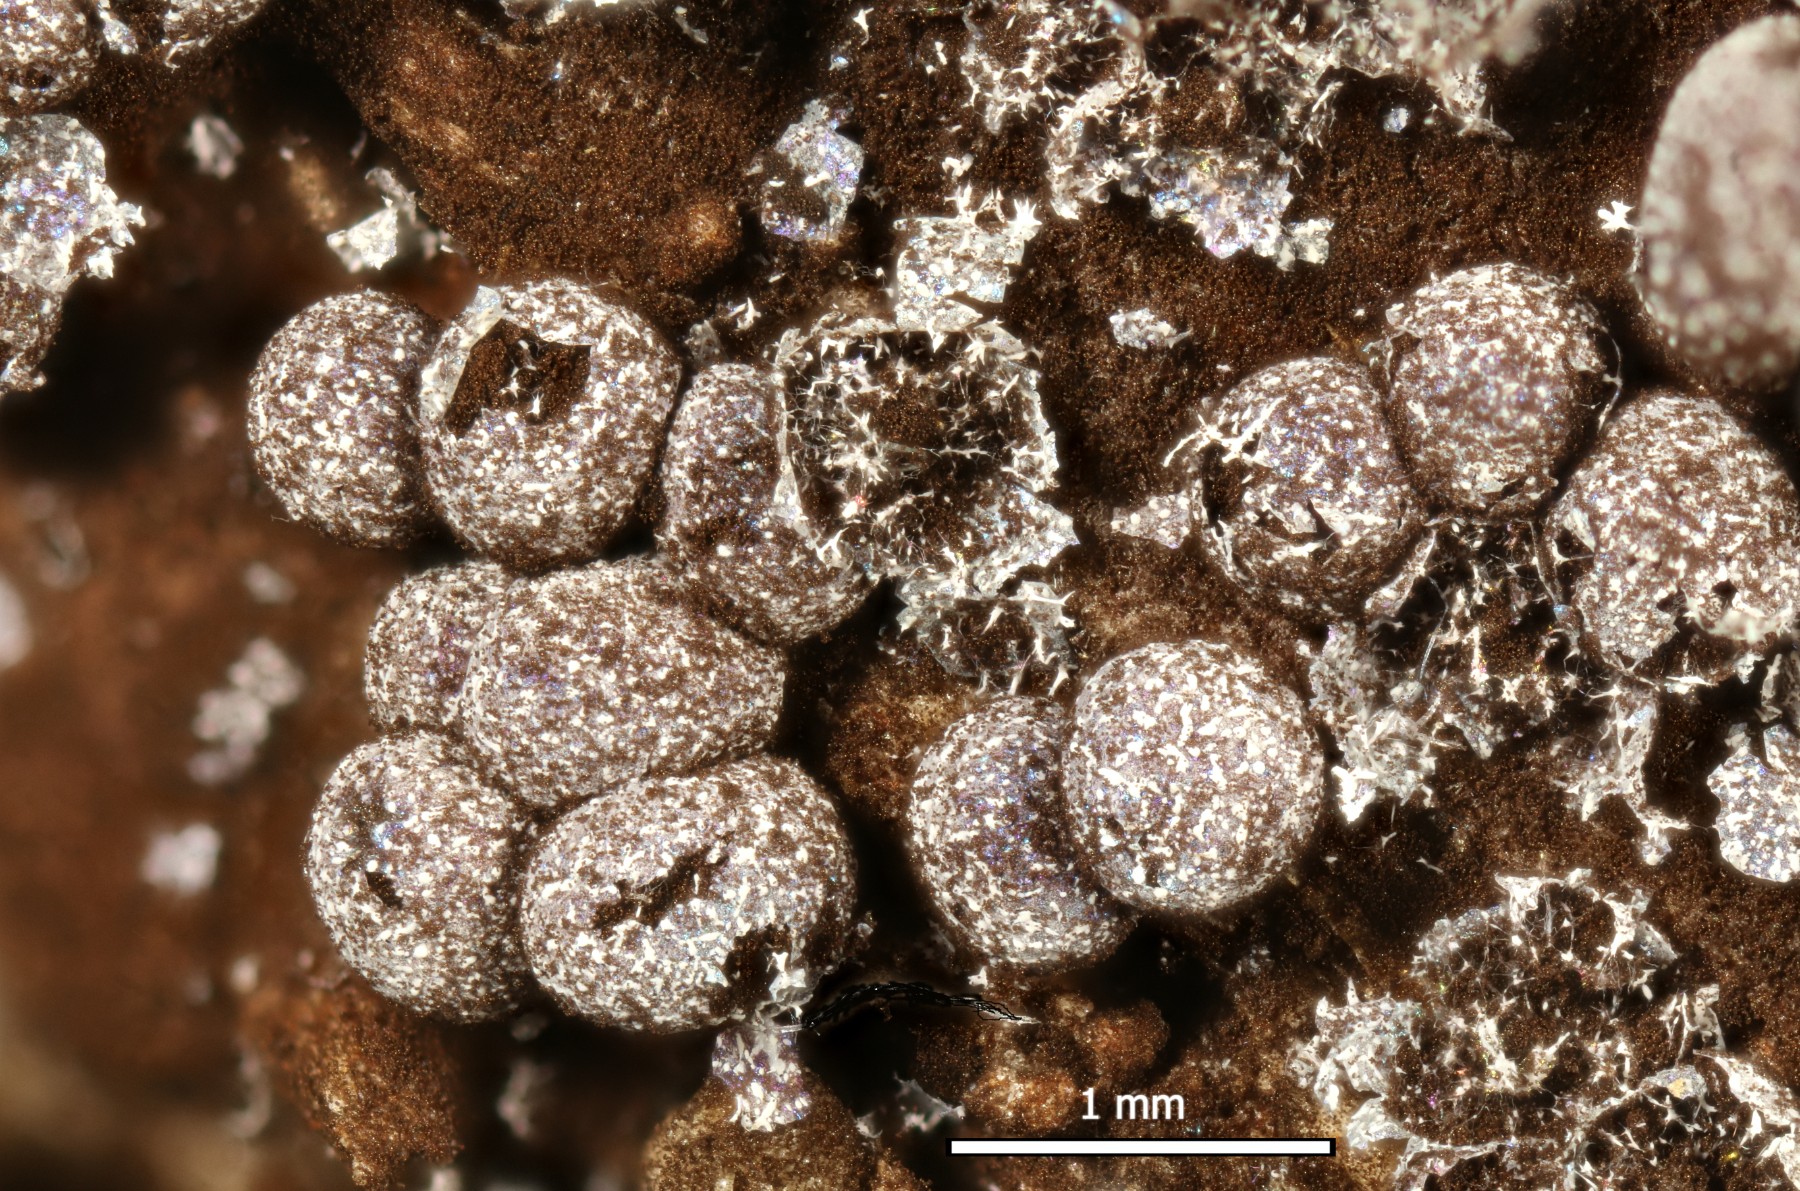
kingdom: Protozoa
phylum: Mycetozoa
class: Myxomycetes
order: Physarales
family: Physaraceae
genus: Physarum
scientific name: Physarum cinereum
